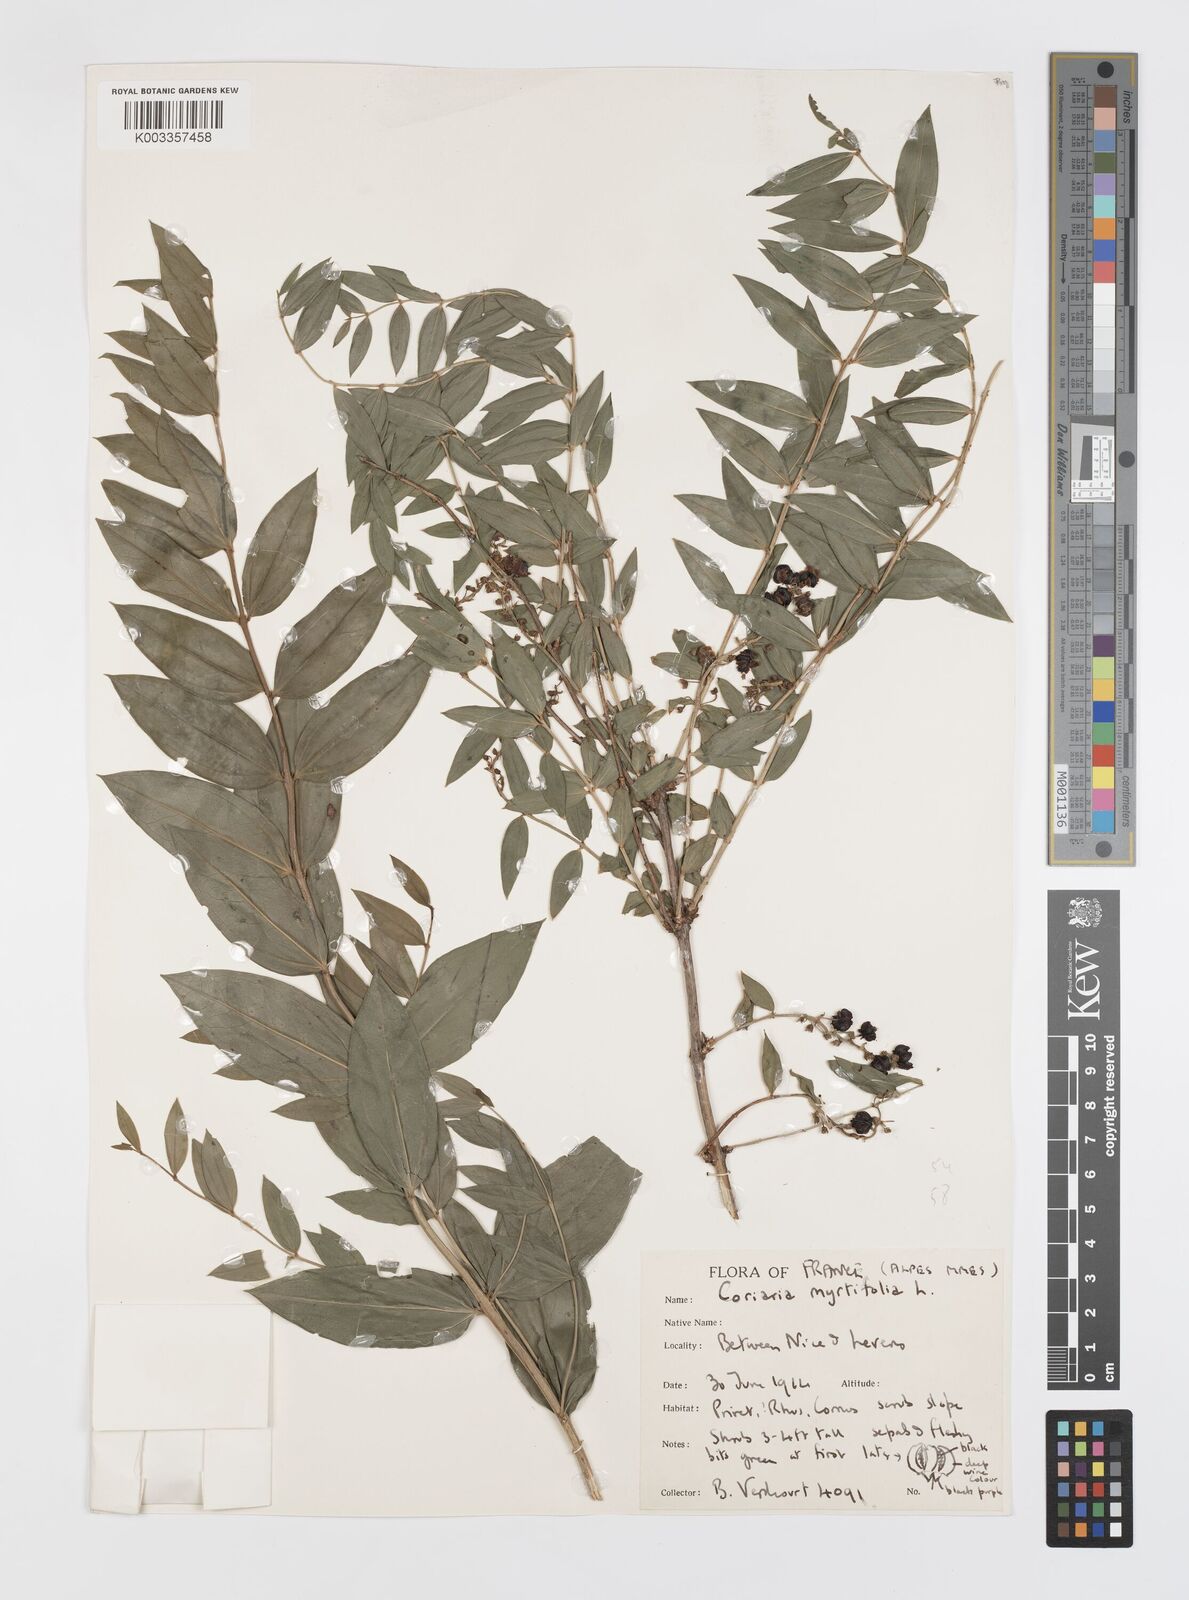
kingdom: Plantae
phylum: Tracheophyta
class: Magnoliopsida
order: Cucurbitales
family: Coriariaceae
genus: Coriaria
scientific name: Coriaria myrtifolia
